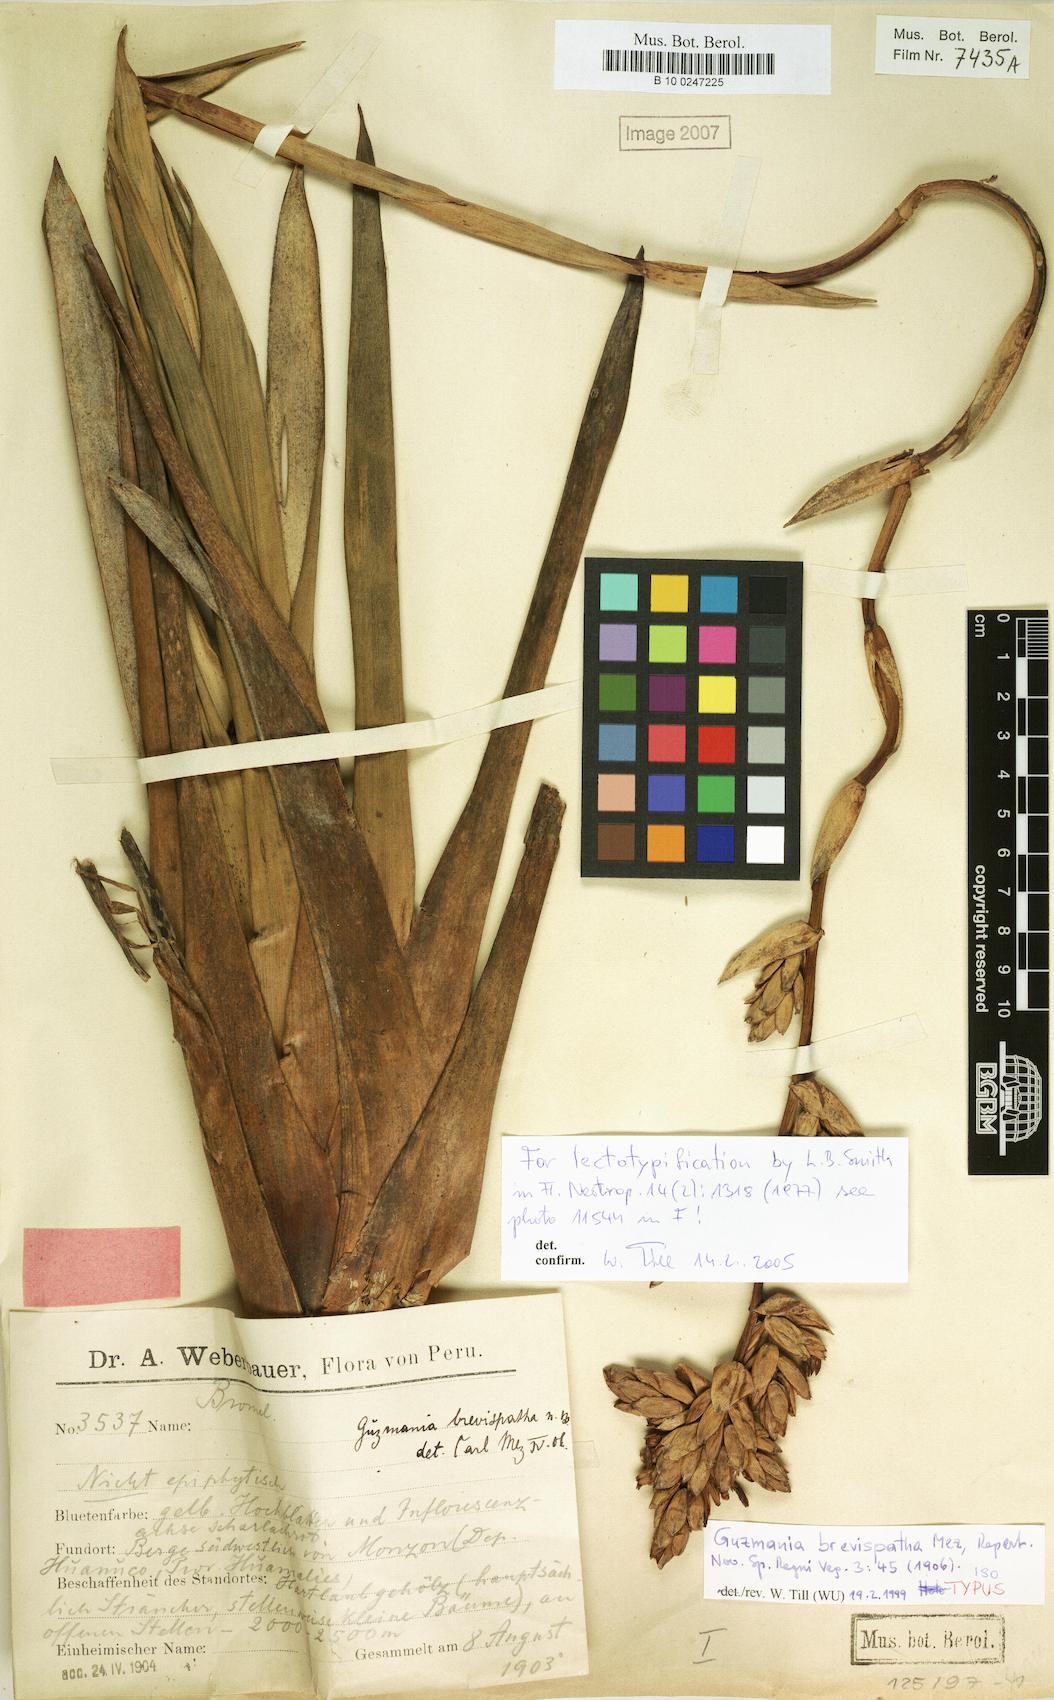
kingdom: Plantae
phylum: Tracheophyta
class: Liliopsida
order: Poales
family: Bromeliaceae
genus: Guzmania
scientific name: Guzmania brevispatha
